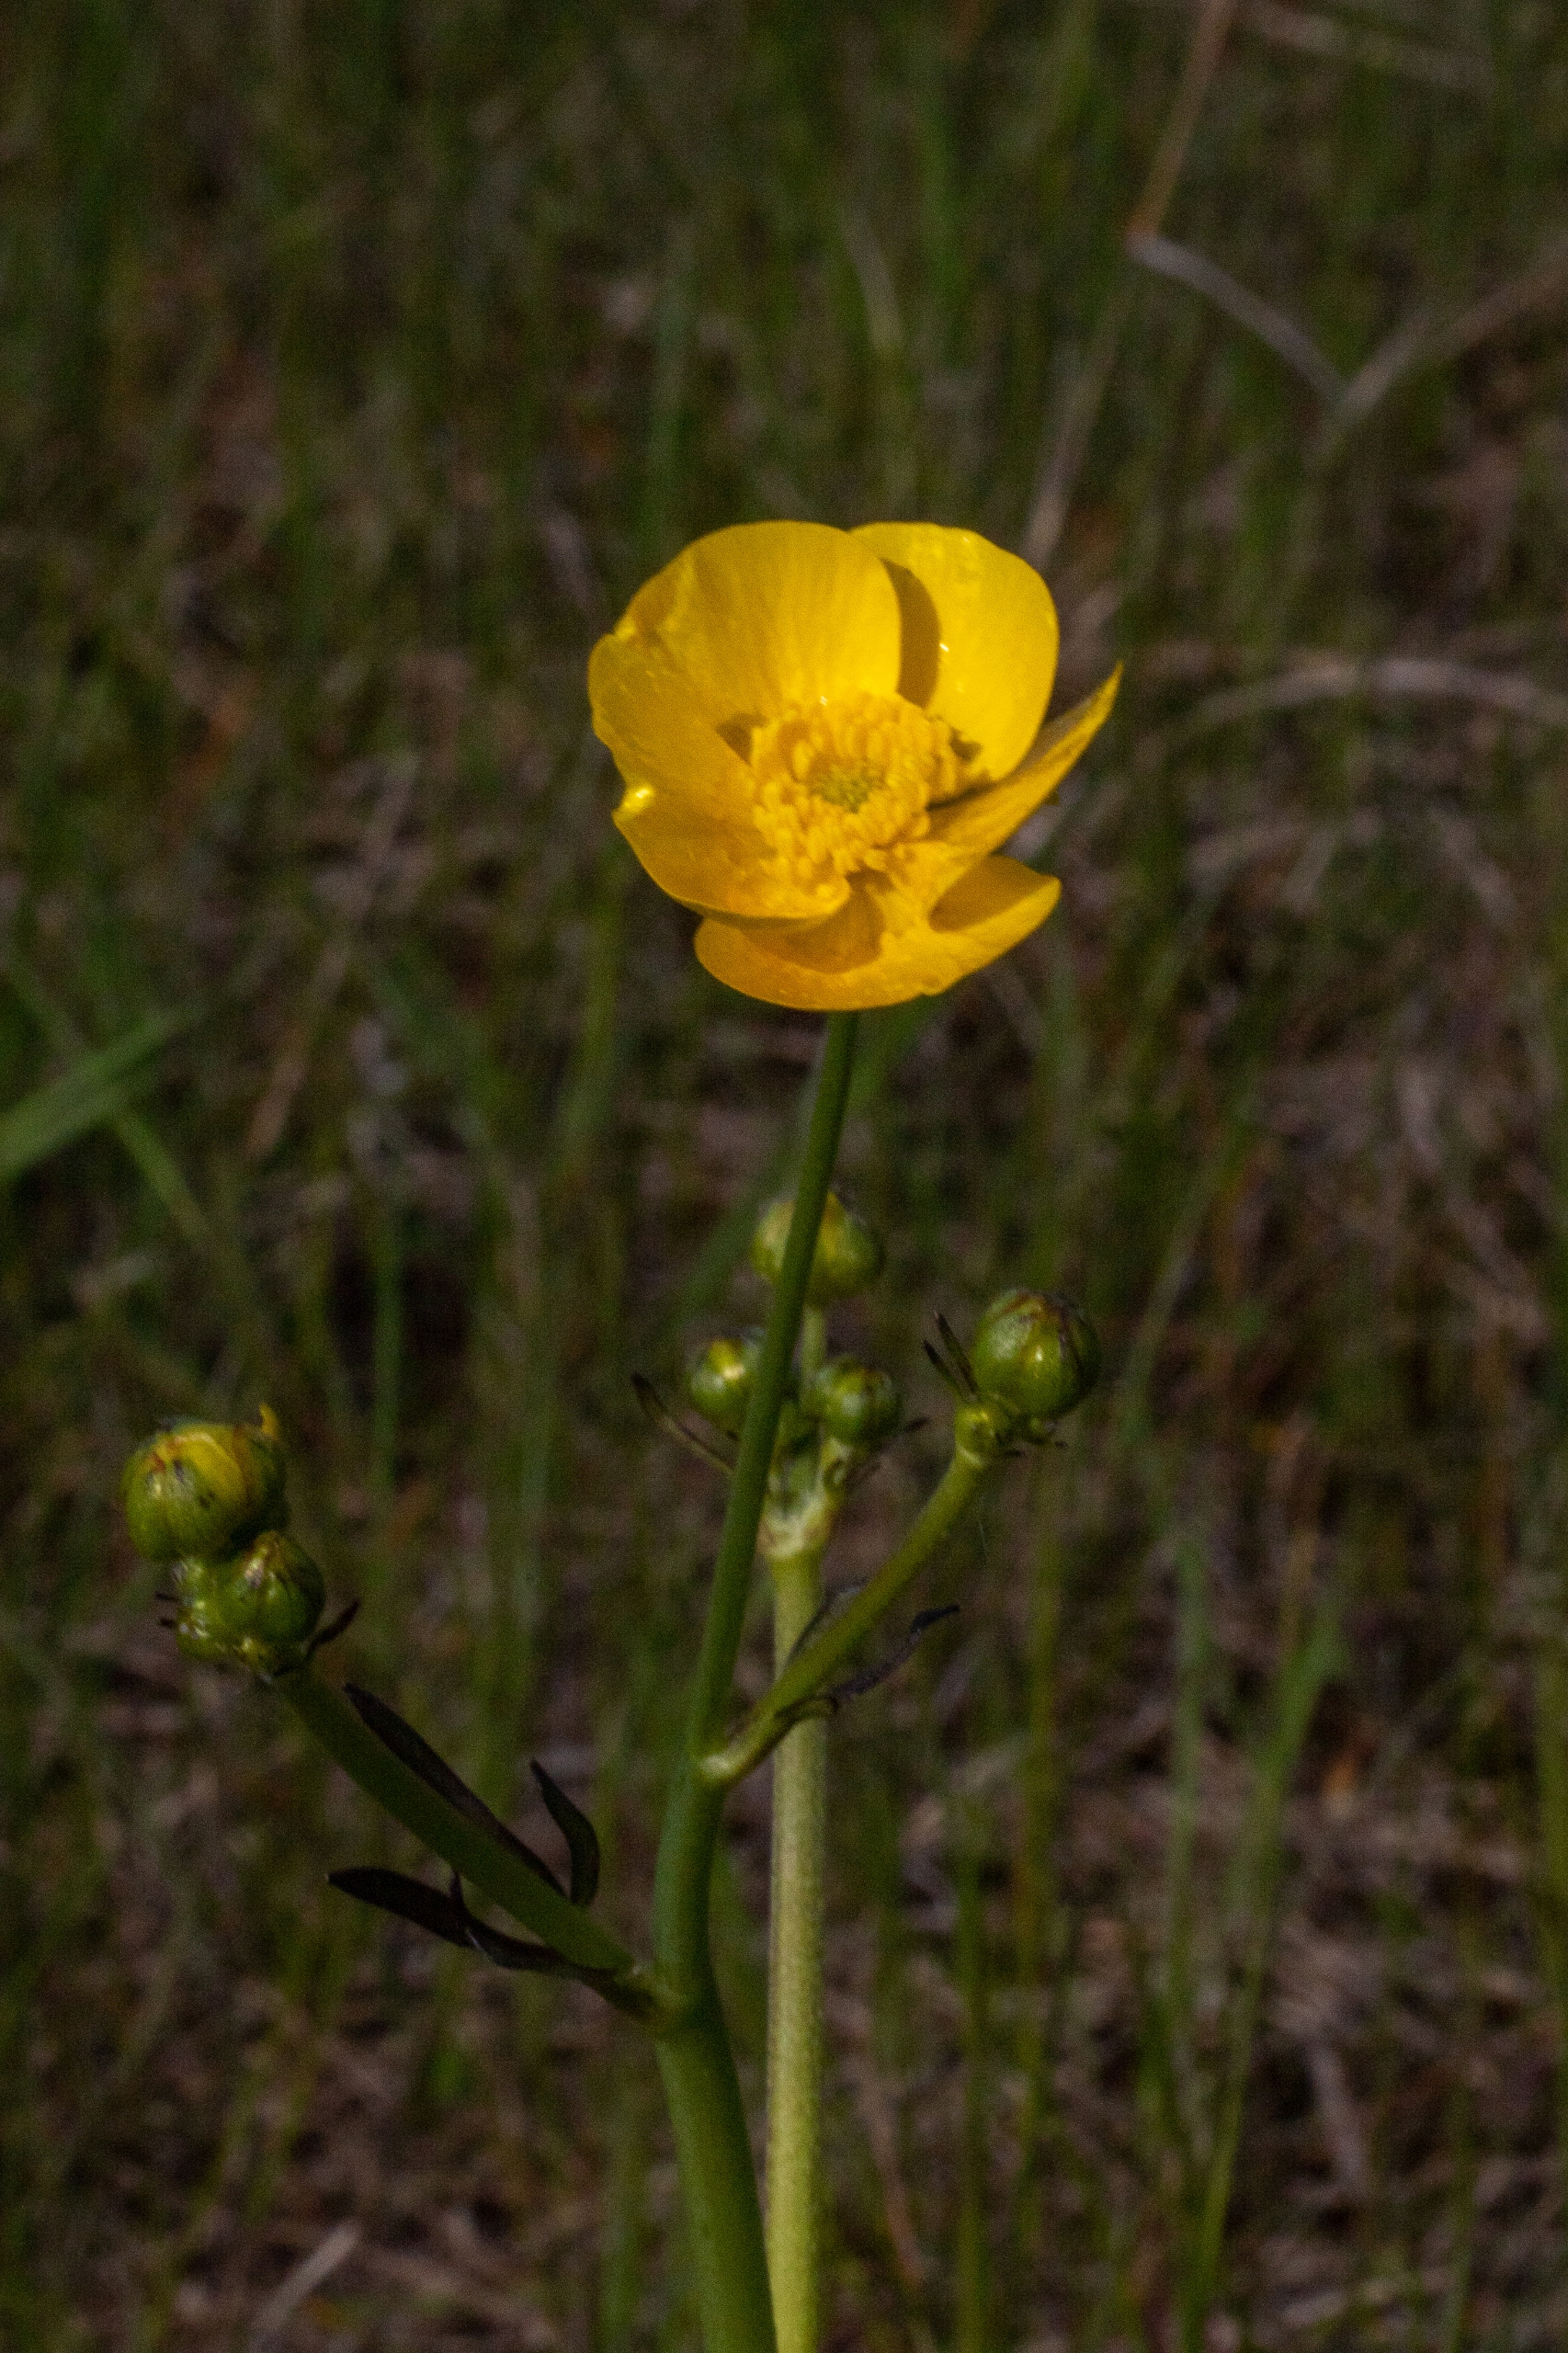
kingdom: Plantae
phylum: Tracheophyta
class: Magnoliopsida
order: Ranunculales
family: Ranunculaceae
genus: Ranunculus
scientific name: Ranunculus acris
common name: Bidende ranunkel
